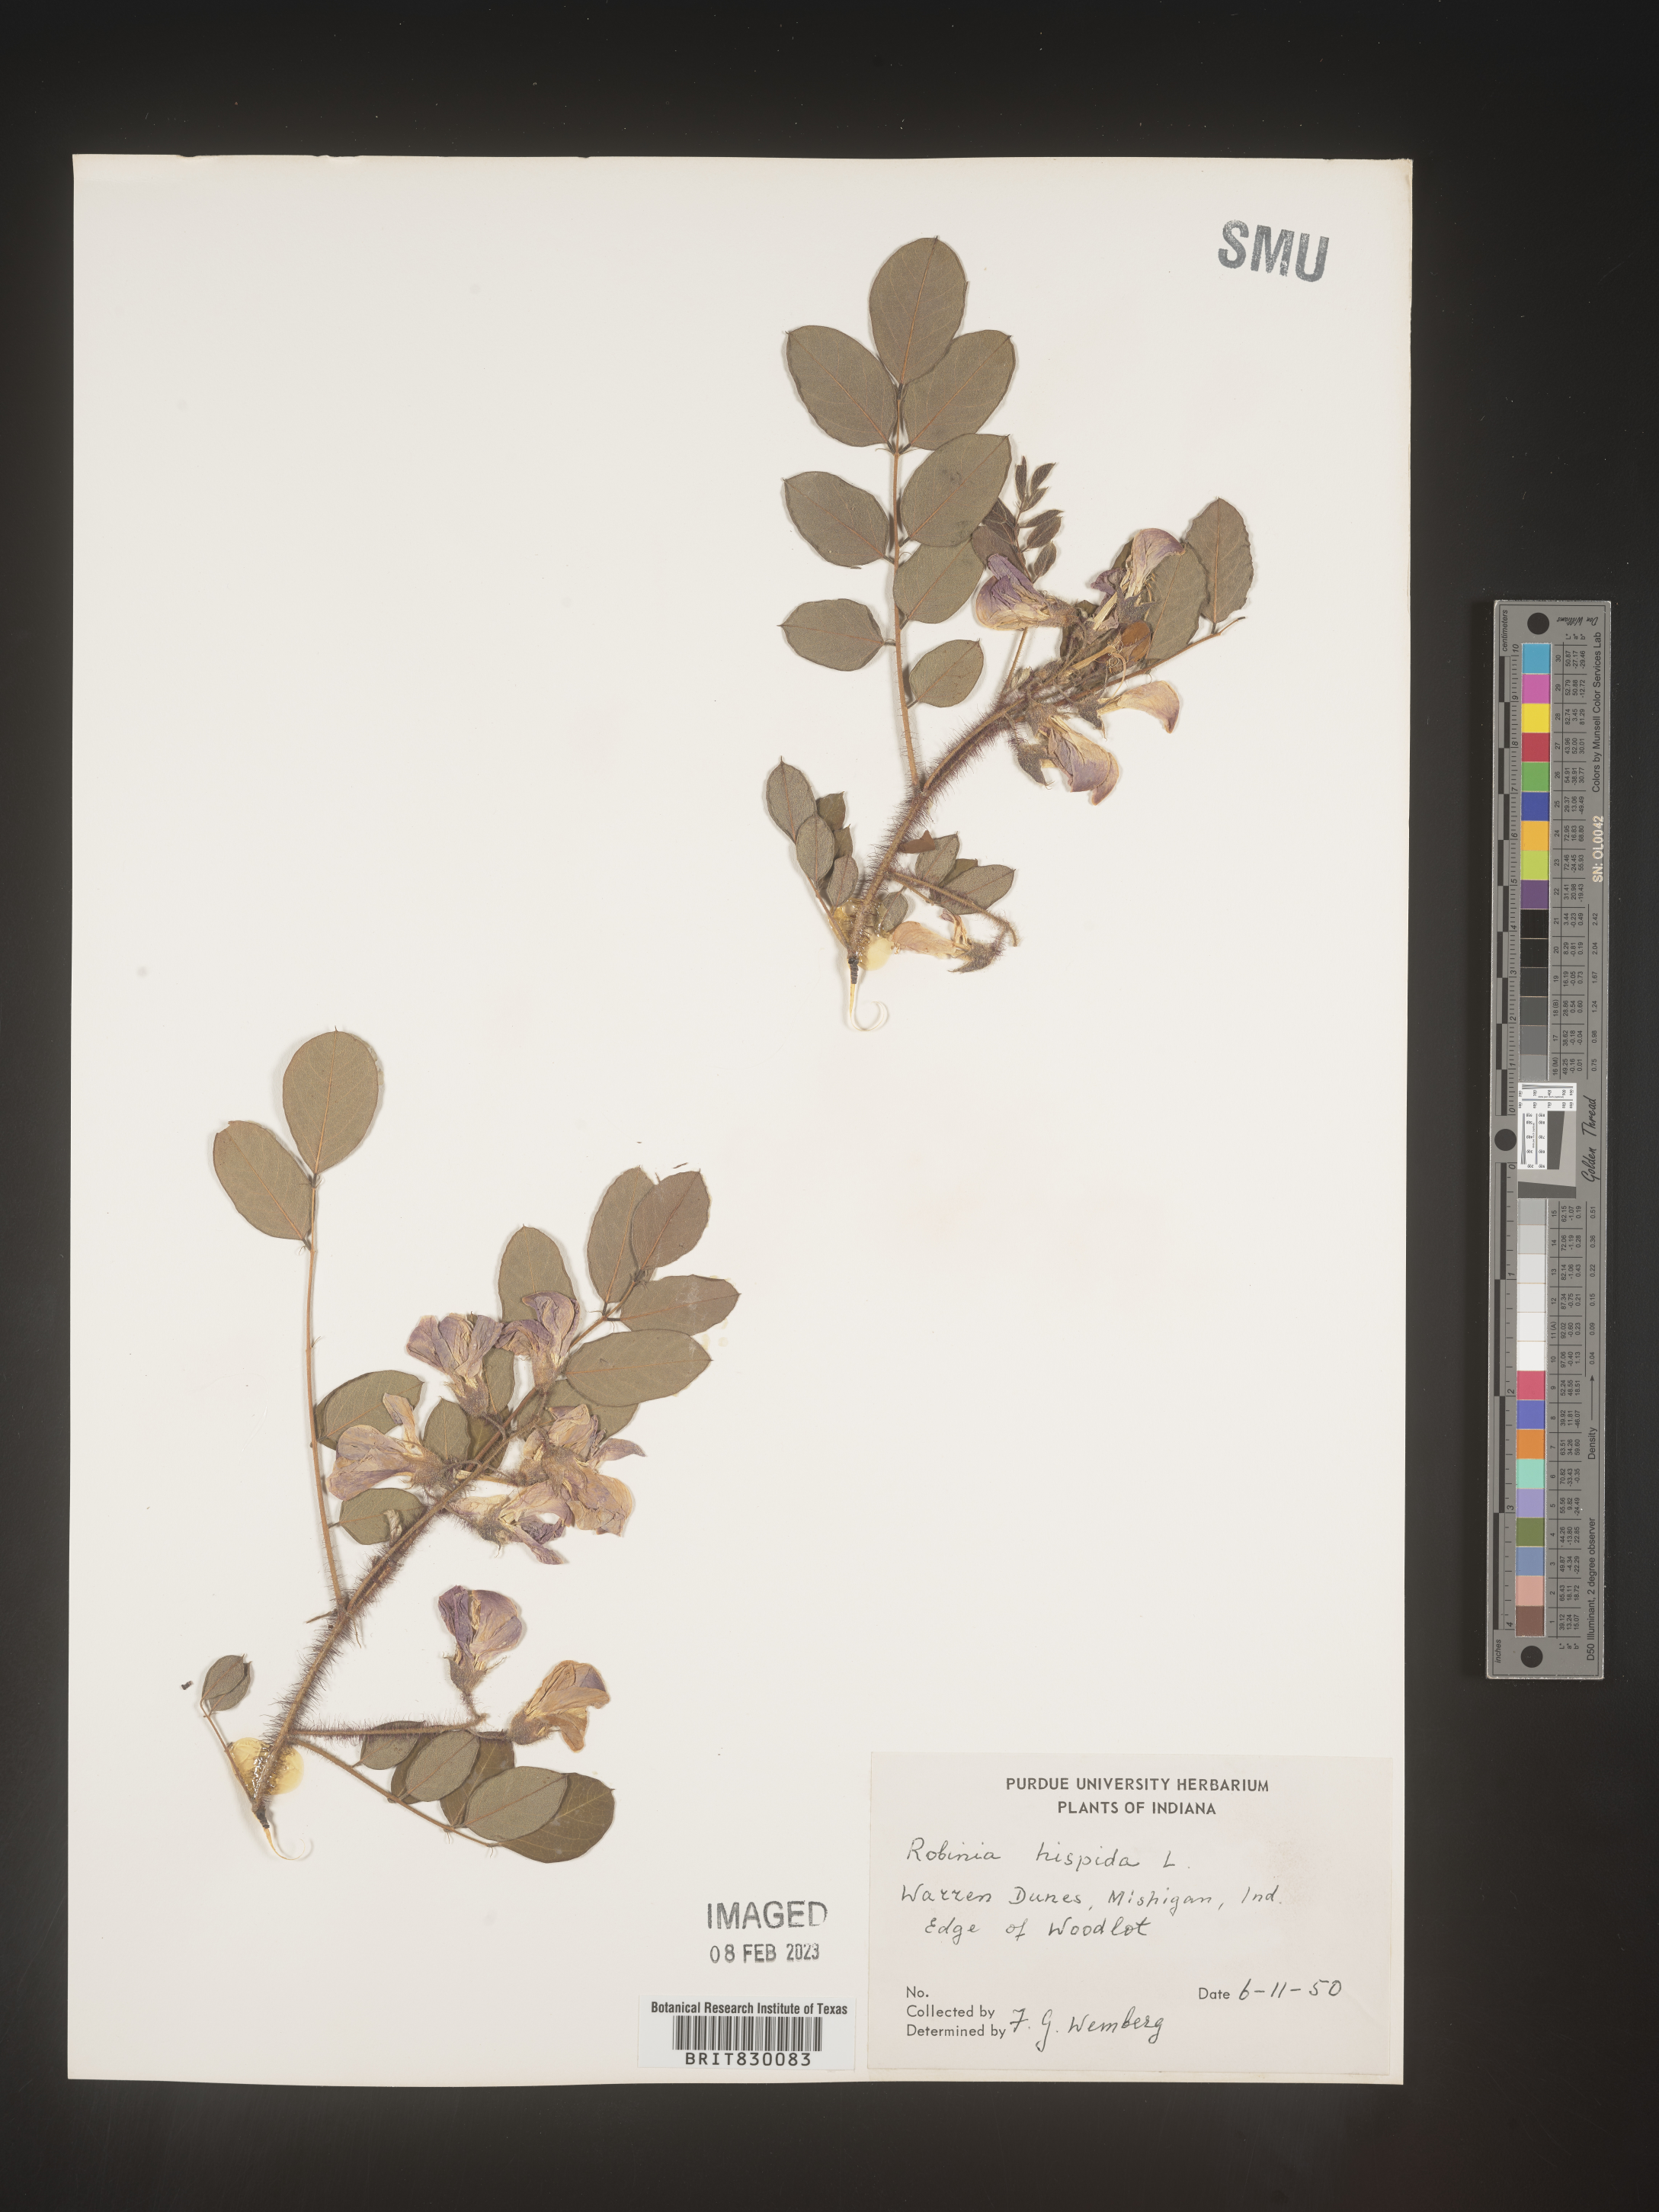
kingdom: Plantae
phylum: Tracheophyta
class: Magnoliopsida
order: Fabales
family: Fabaceae
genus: Robinia
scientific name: Robinia hispida
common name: Bristly locust
